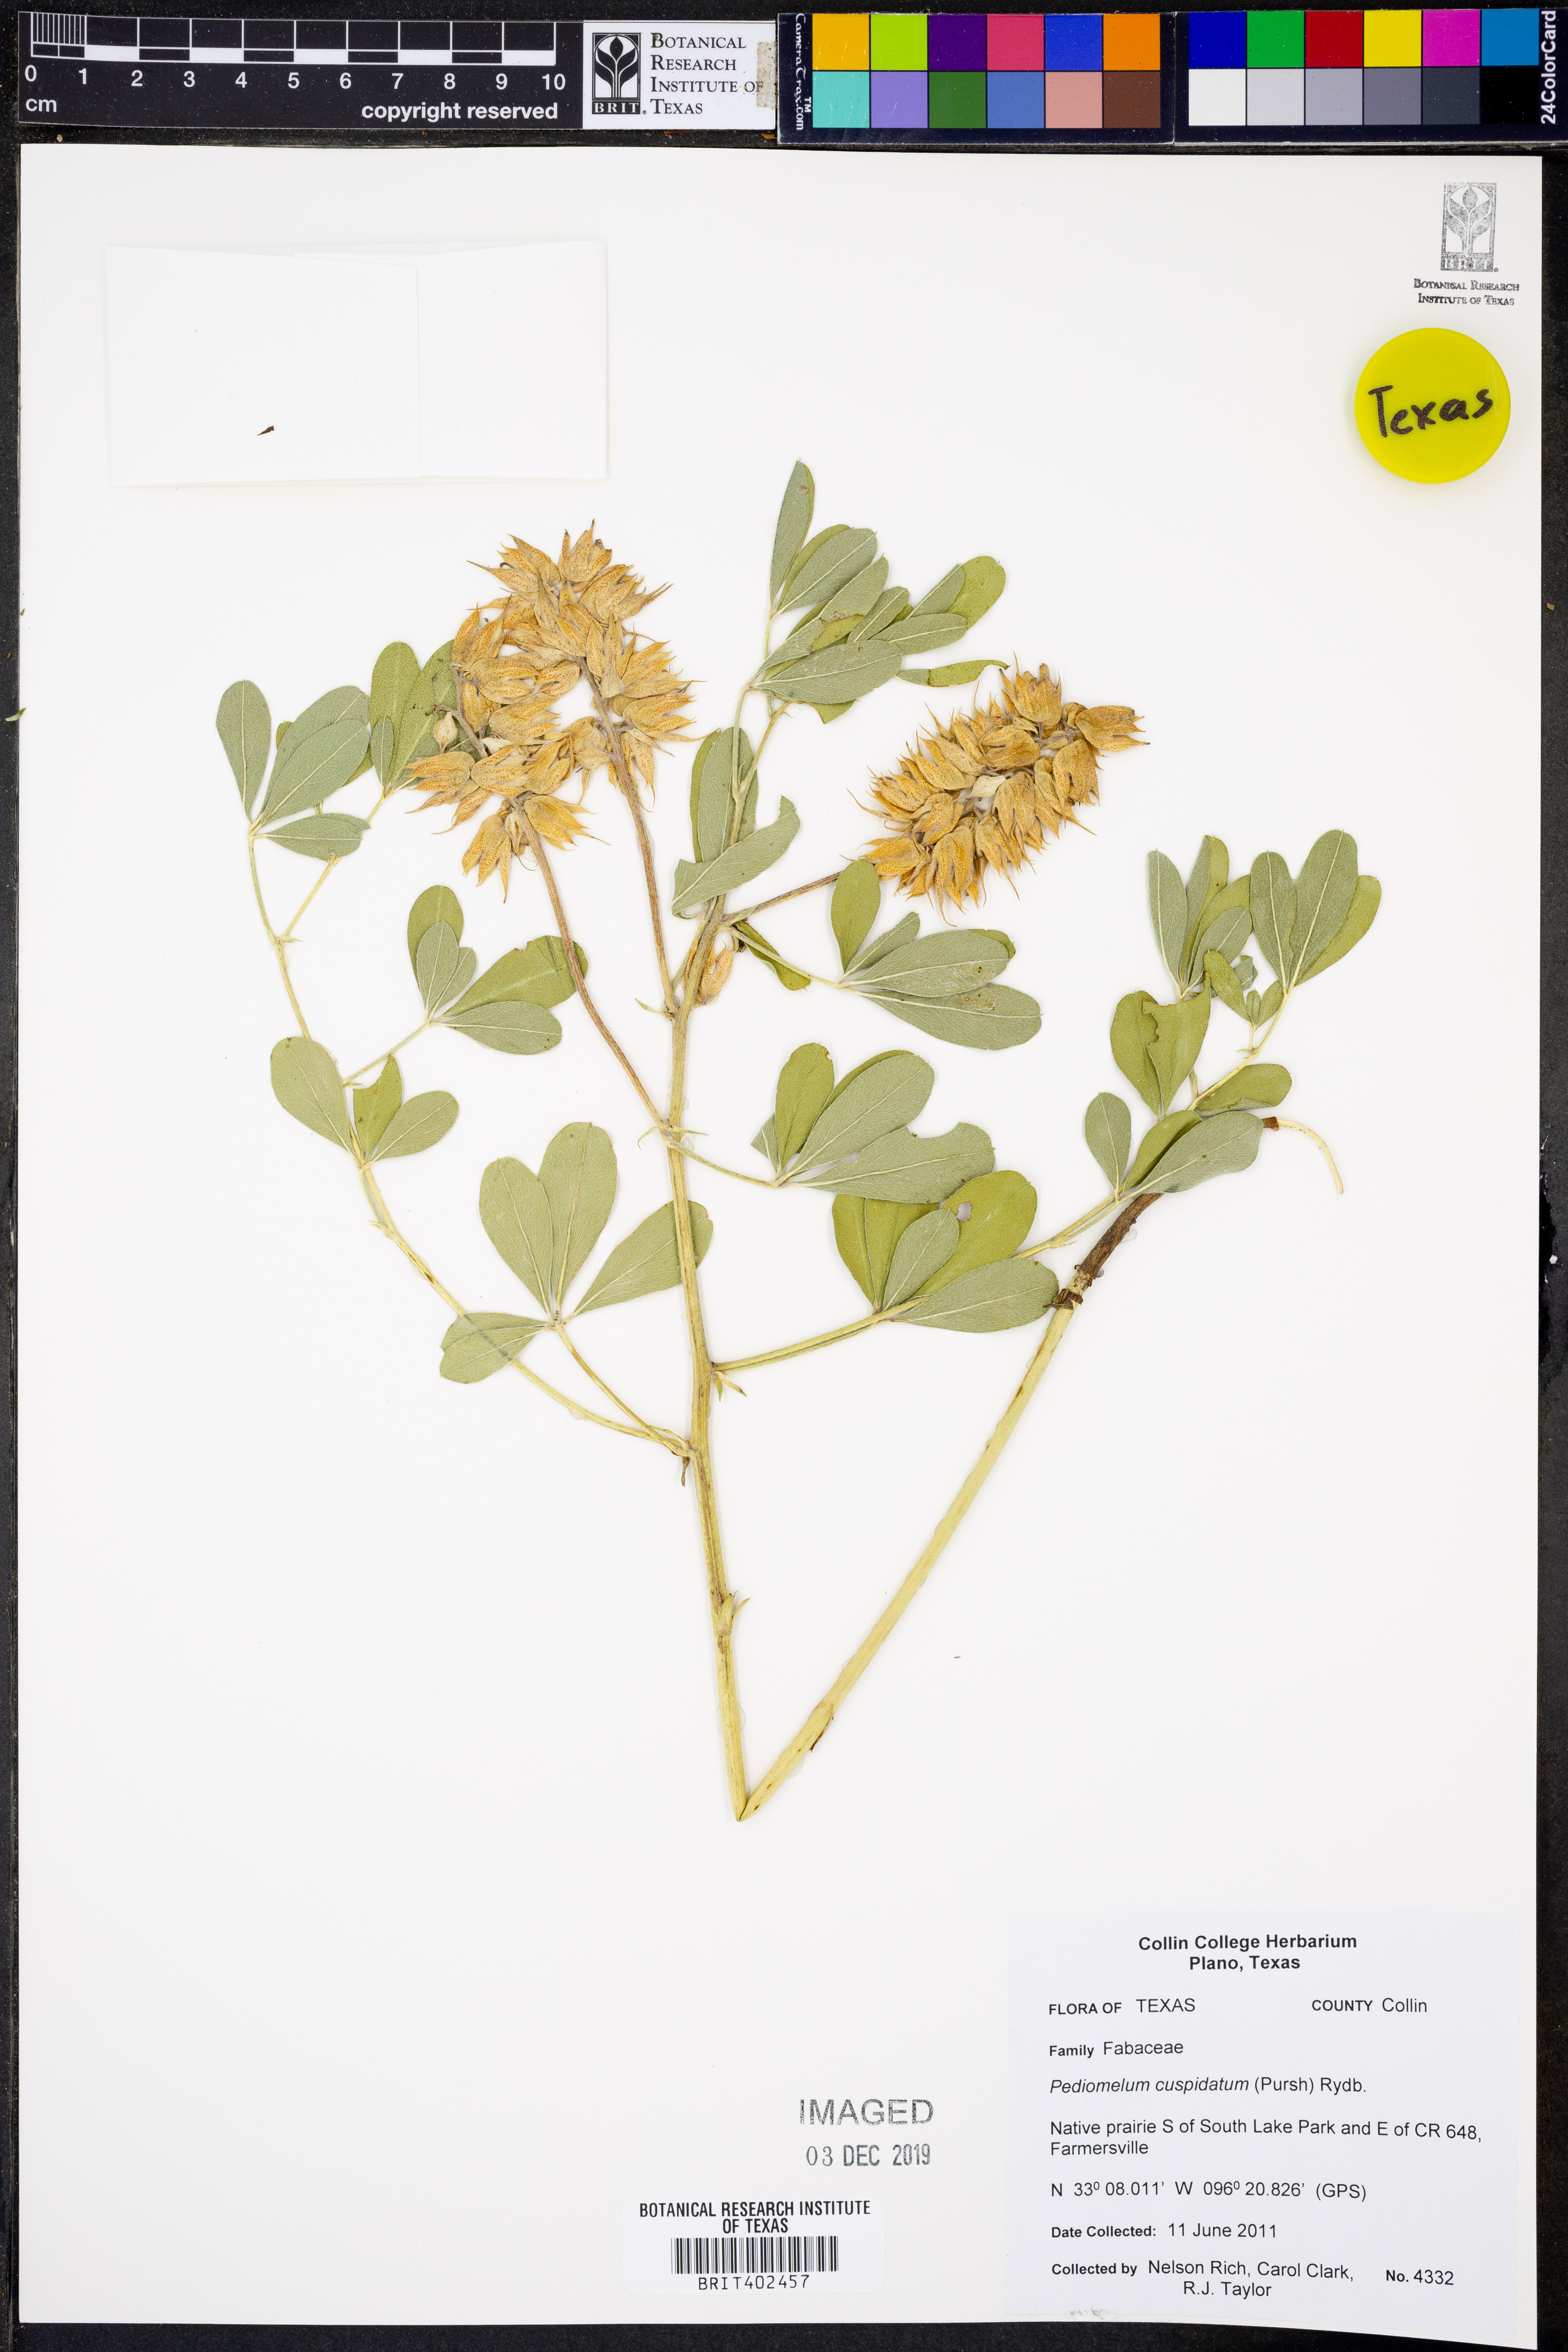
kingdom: Plantae
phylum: Tracheophyta
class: Magnoliopsida
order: Fabales
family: Fabaceae
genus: Pediomelum
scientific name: Pediomelum cuspidatum
